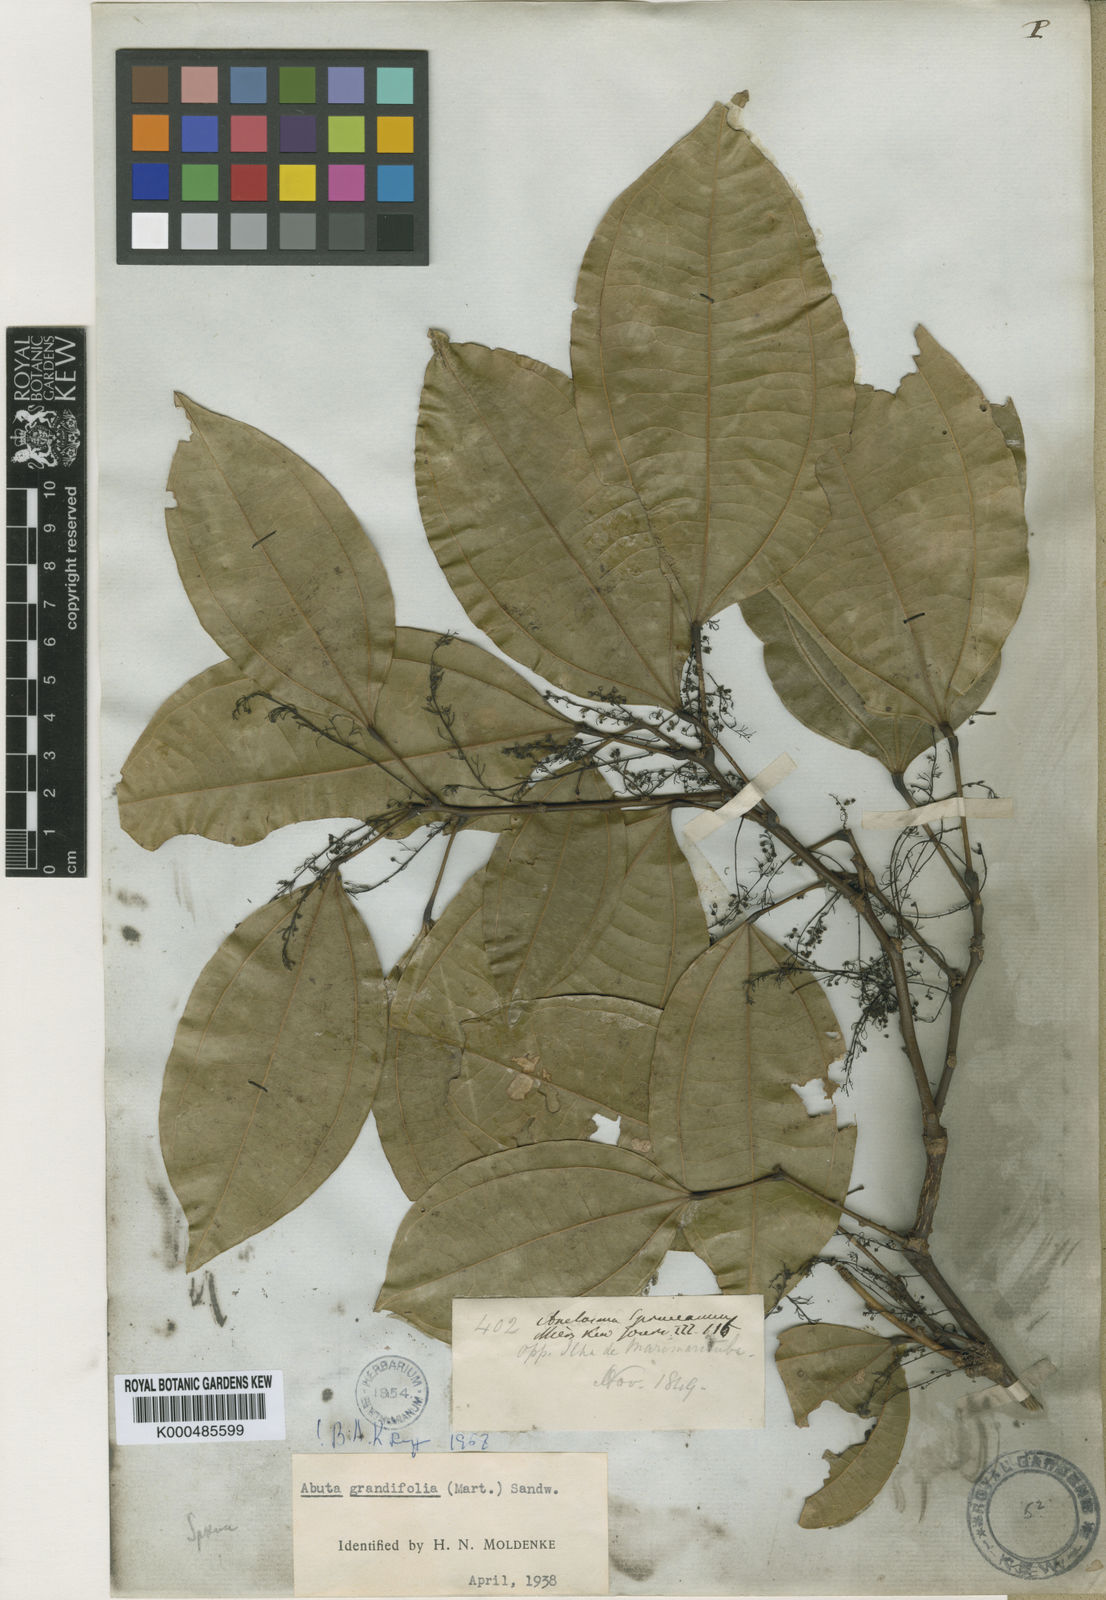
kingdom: Plantae
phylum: Tracheophyta
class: Magnoliopsida
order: Ranunculales
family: Menispermaceae
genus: Abuta
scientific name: Abuta grandifolia
